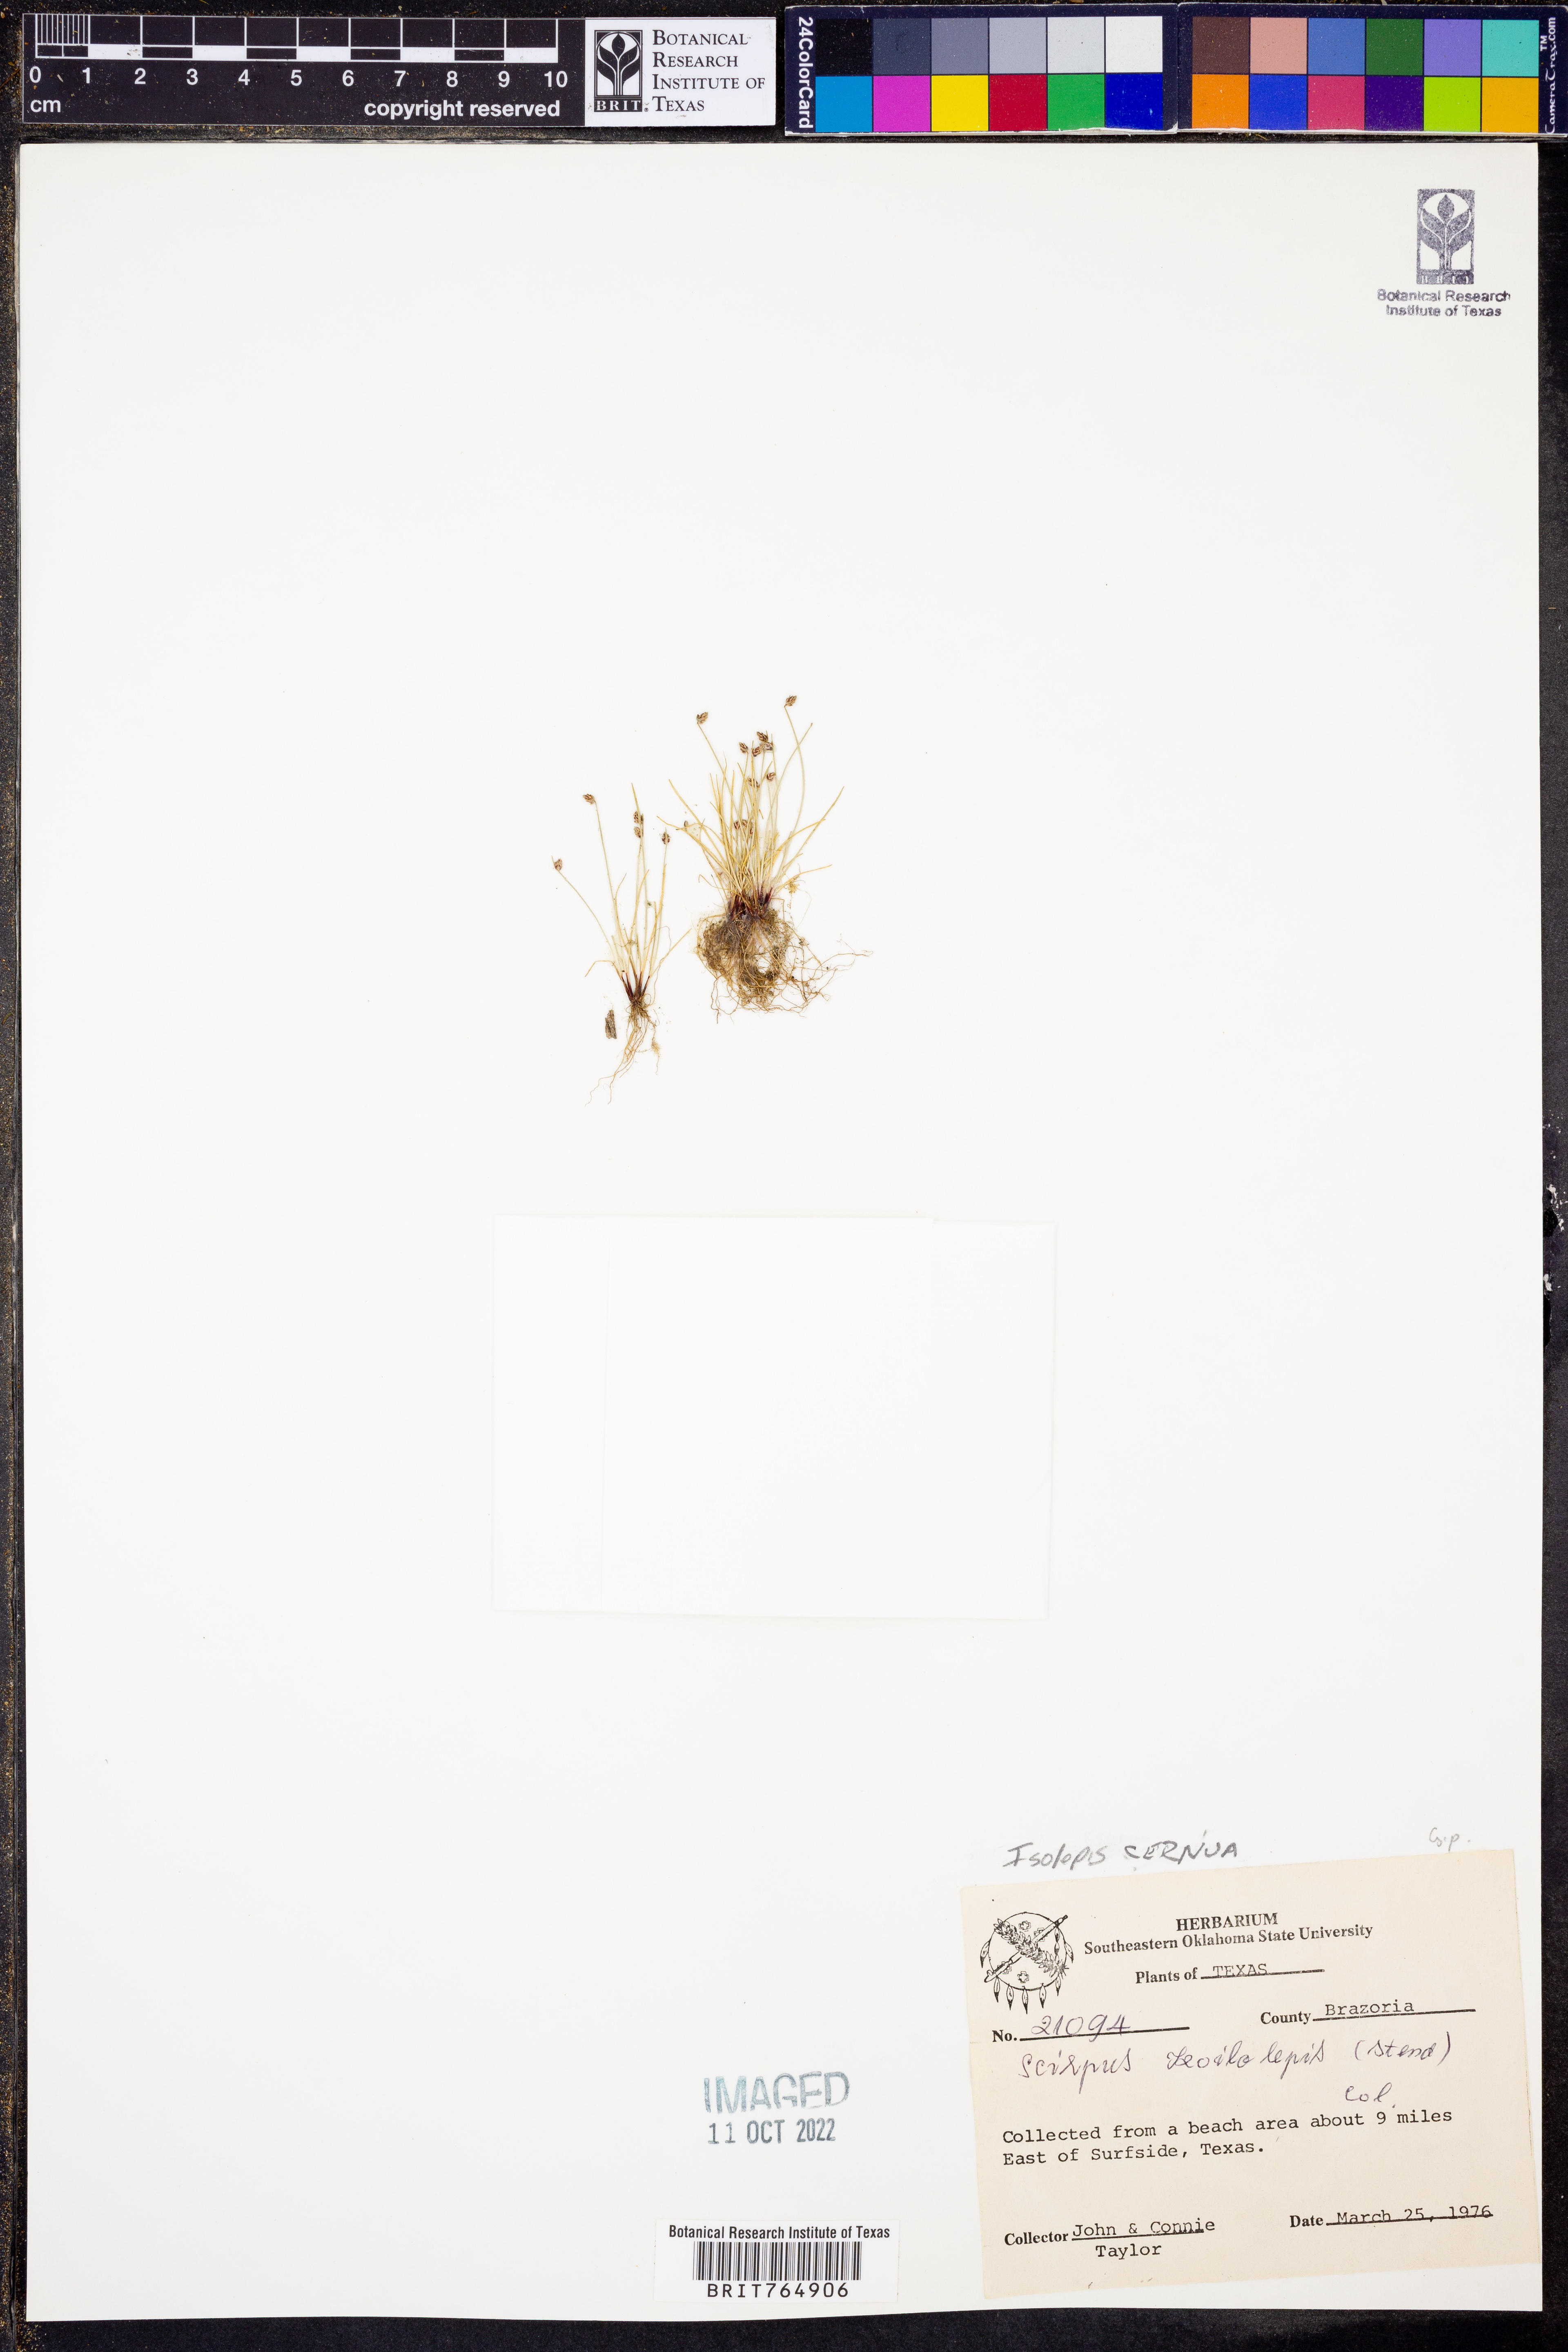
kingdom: Plantae
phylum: Tracheophyta
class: Liliopsida
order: Poales
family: Cyperaceae
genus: Isolepis
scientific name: Isolepis cernua
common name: Slender club-rush
